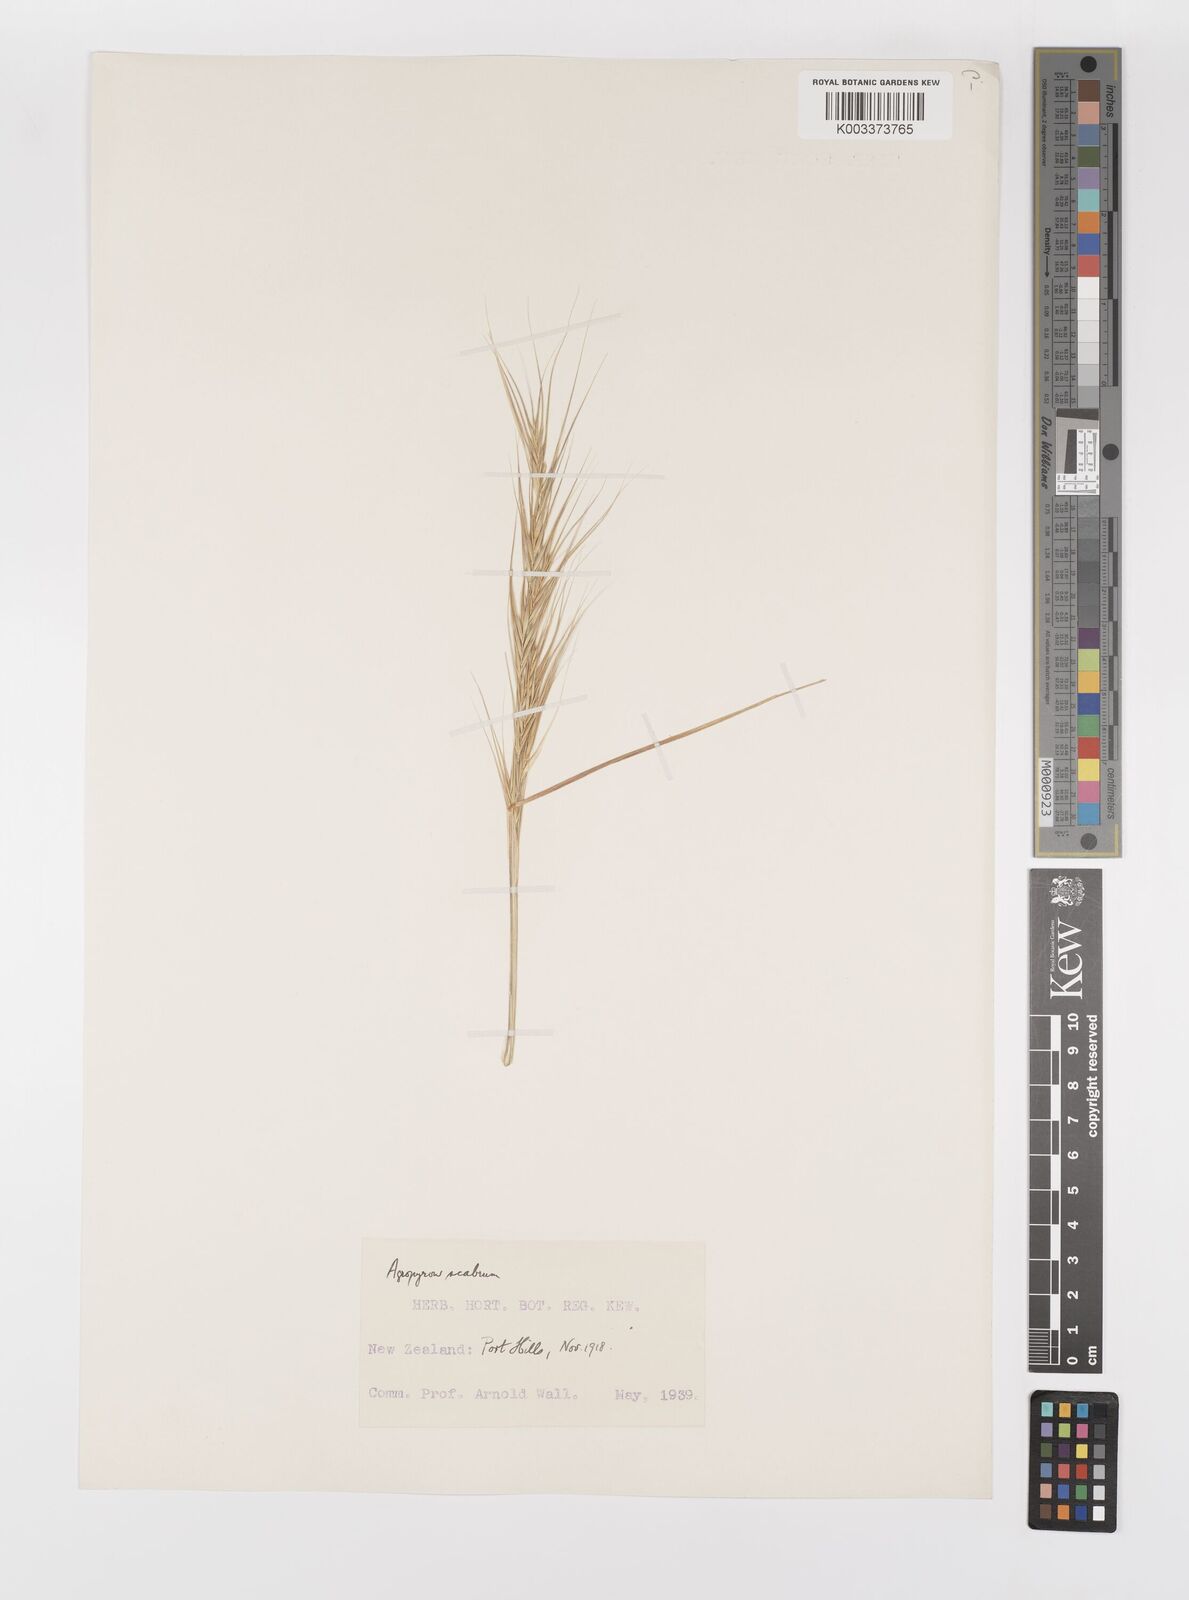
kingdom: Plantae
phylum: Tracheophyta
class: Liliopsida
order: Poales
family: Poaceae
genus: Anthosachne
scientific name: Anthosachne scabra
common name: Common wheatgrass
